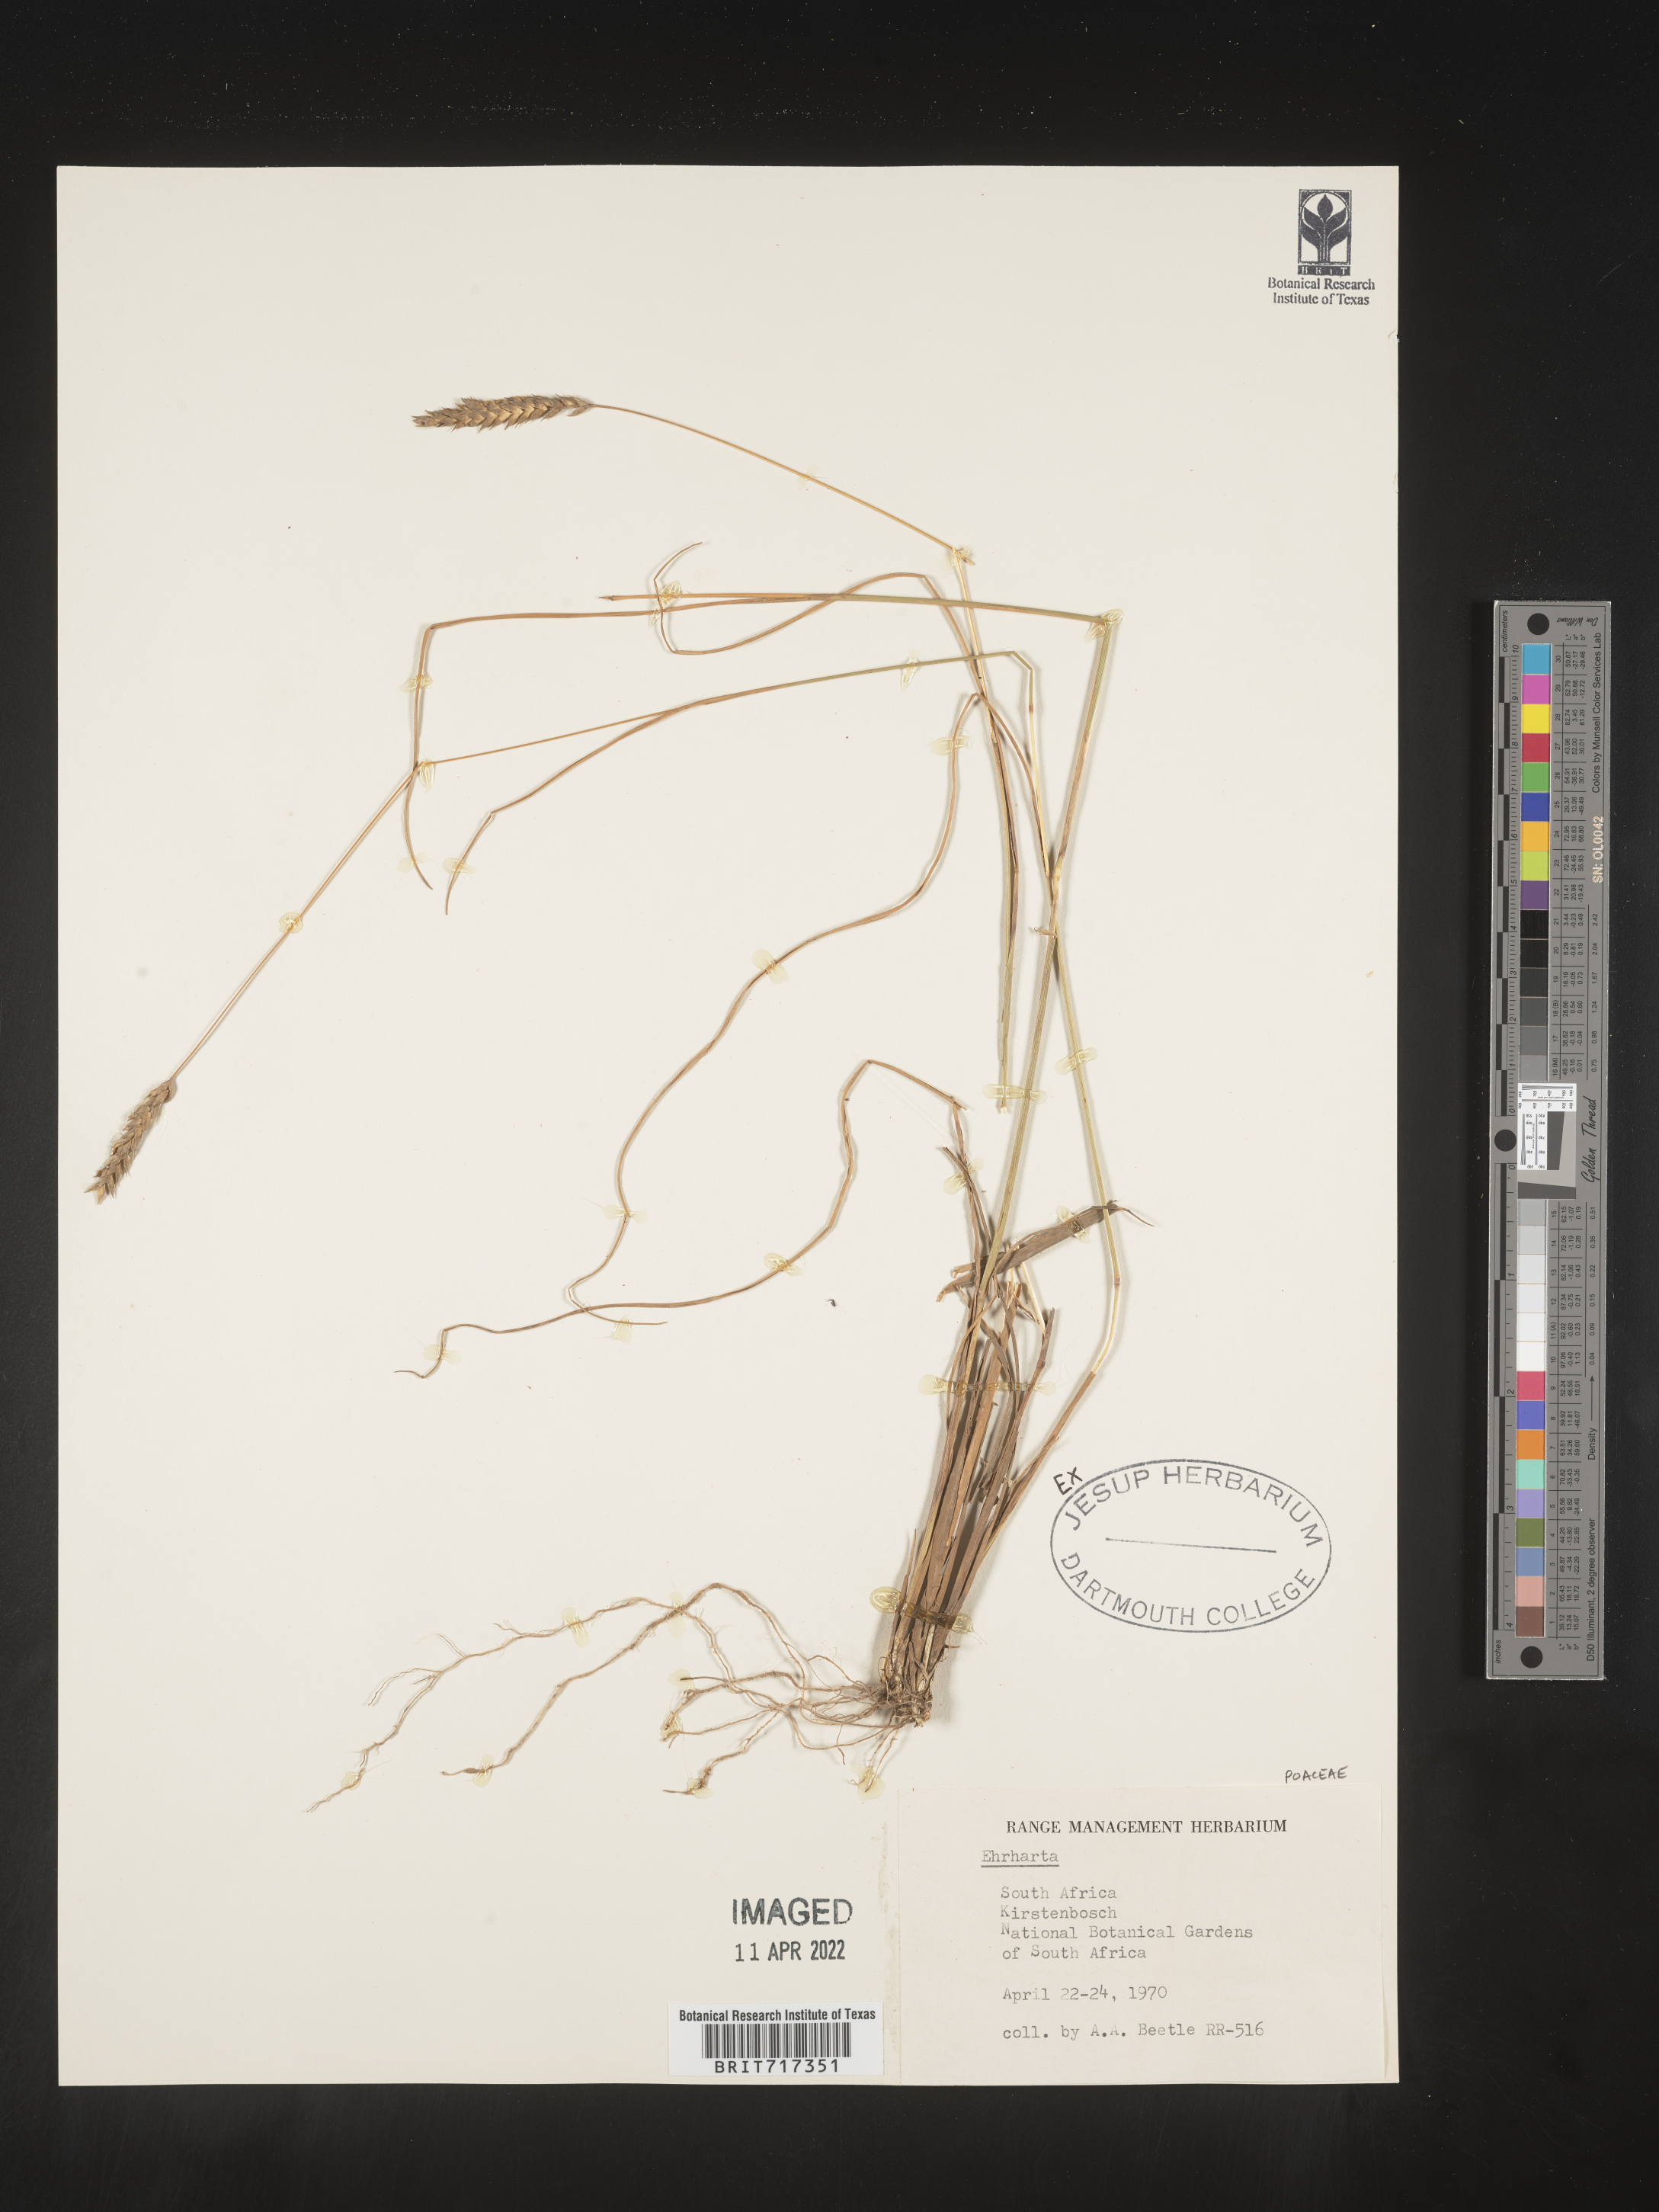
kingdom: Plantae
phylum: Tracheophyta
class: Liliopsida
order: Poales
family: Poaceae
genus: Ehrharta
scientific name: Ehrharta
